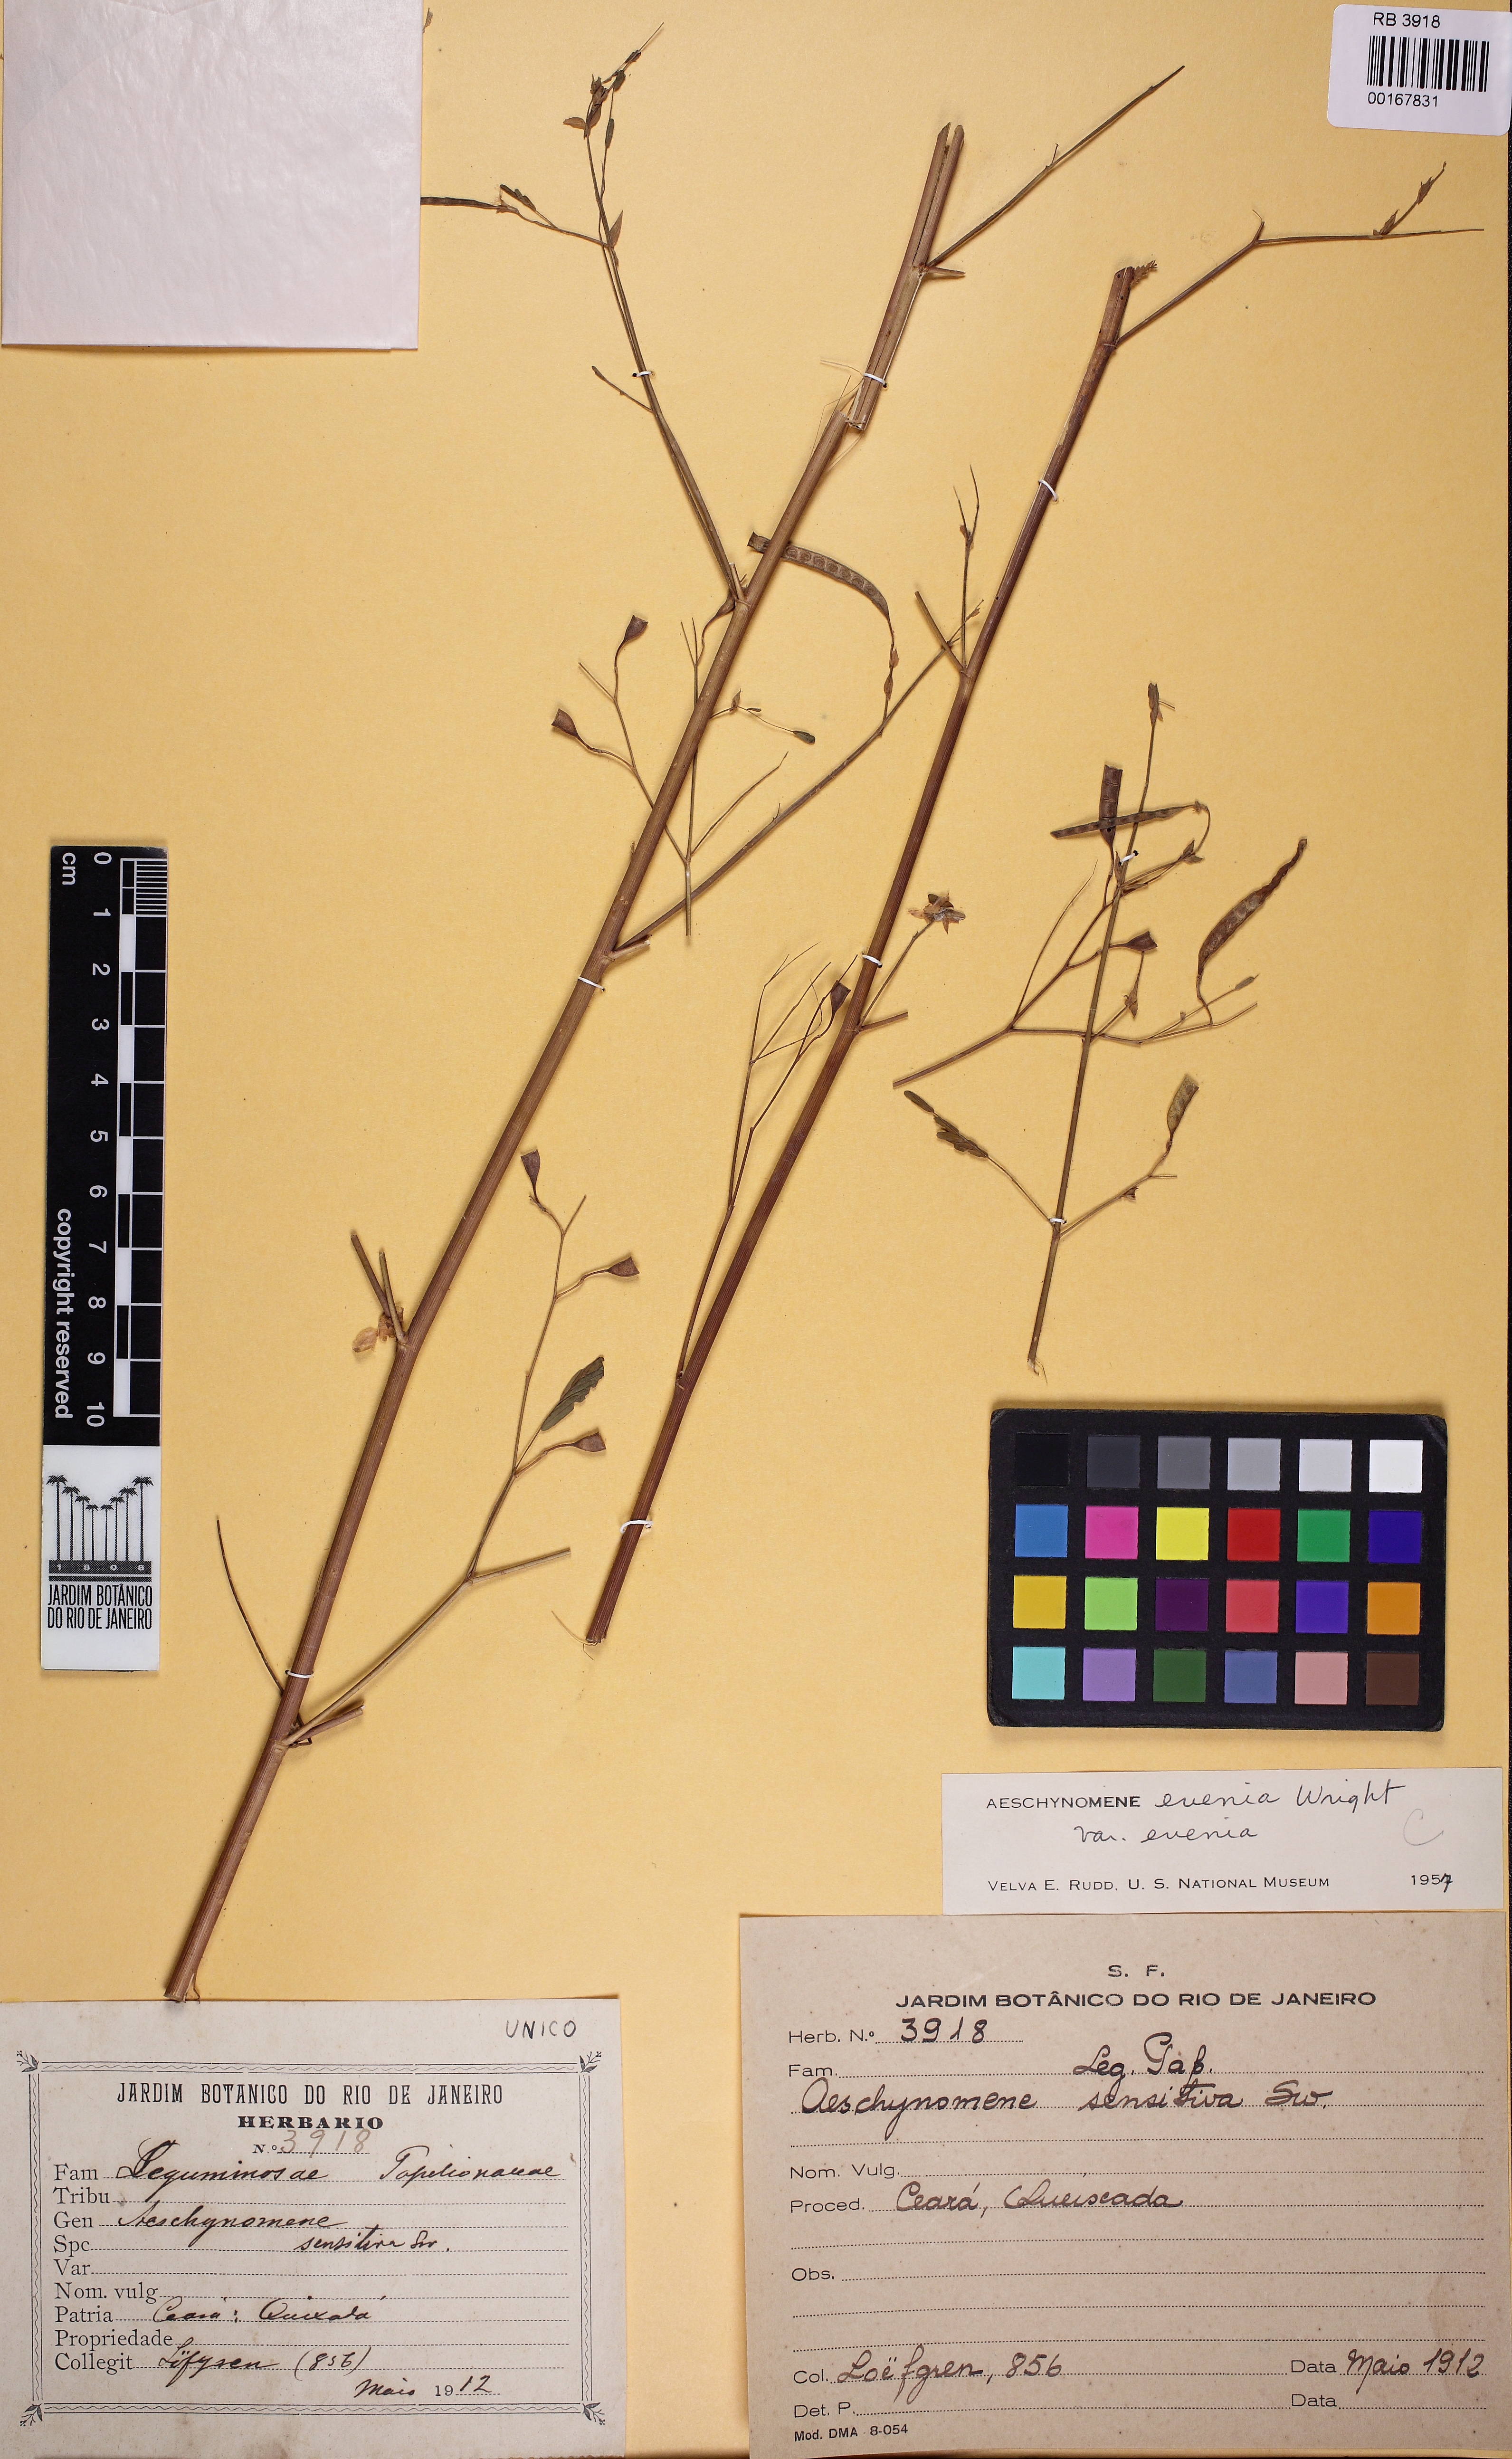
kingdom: Plantae
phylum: Tracheophyta
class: Magnoliopsida
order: Fabales
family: Fabaceae
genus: Aeschynomene
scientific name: Aeschynomene evenia
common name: Shrubby jointvetch
